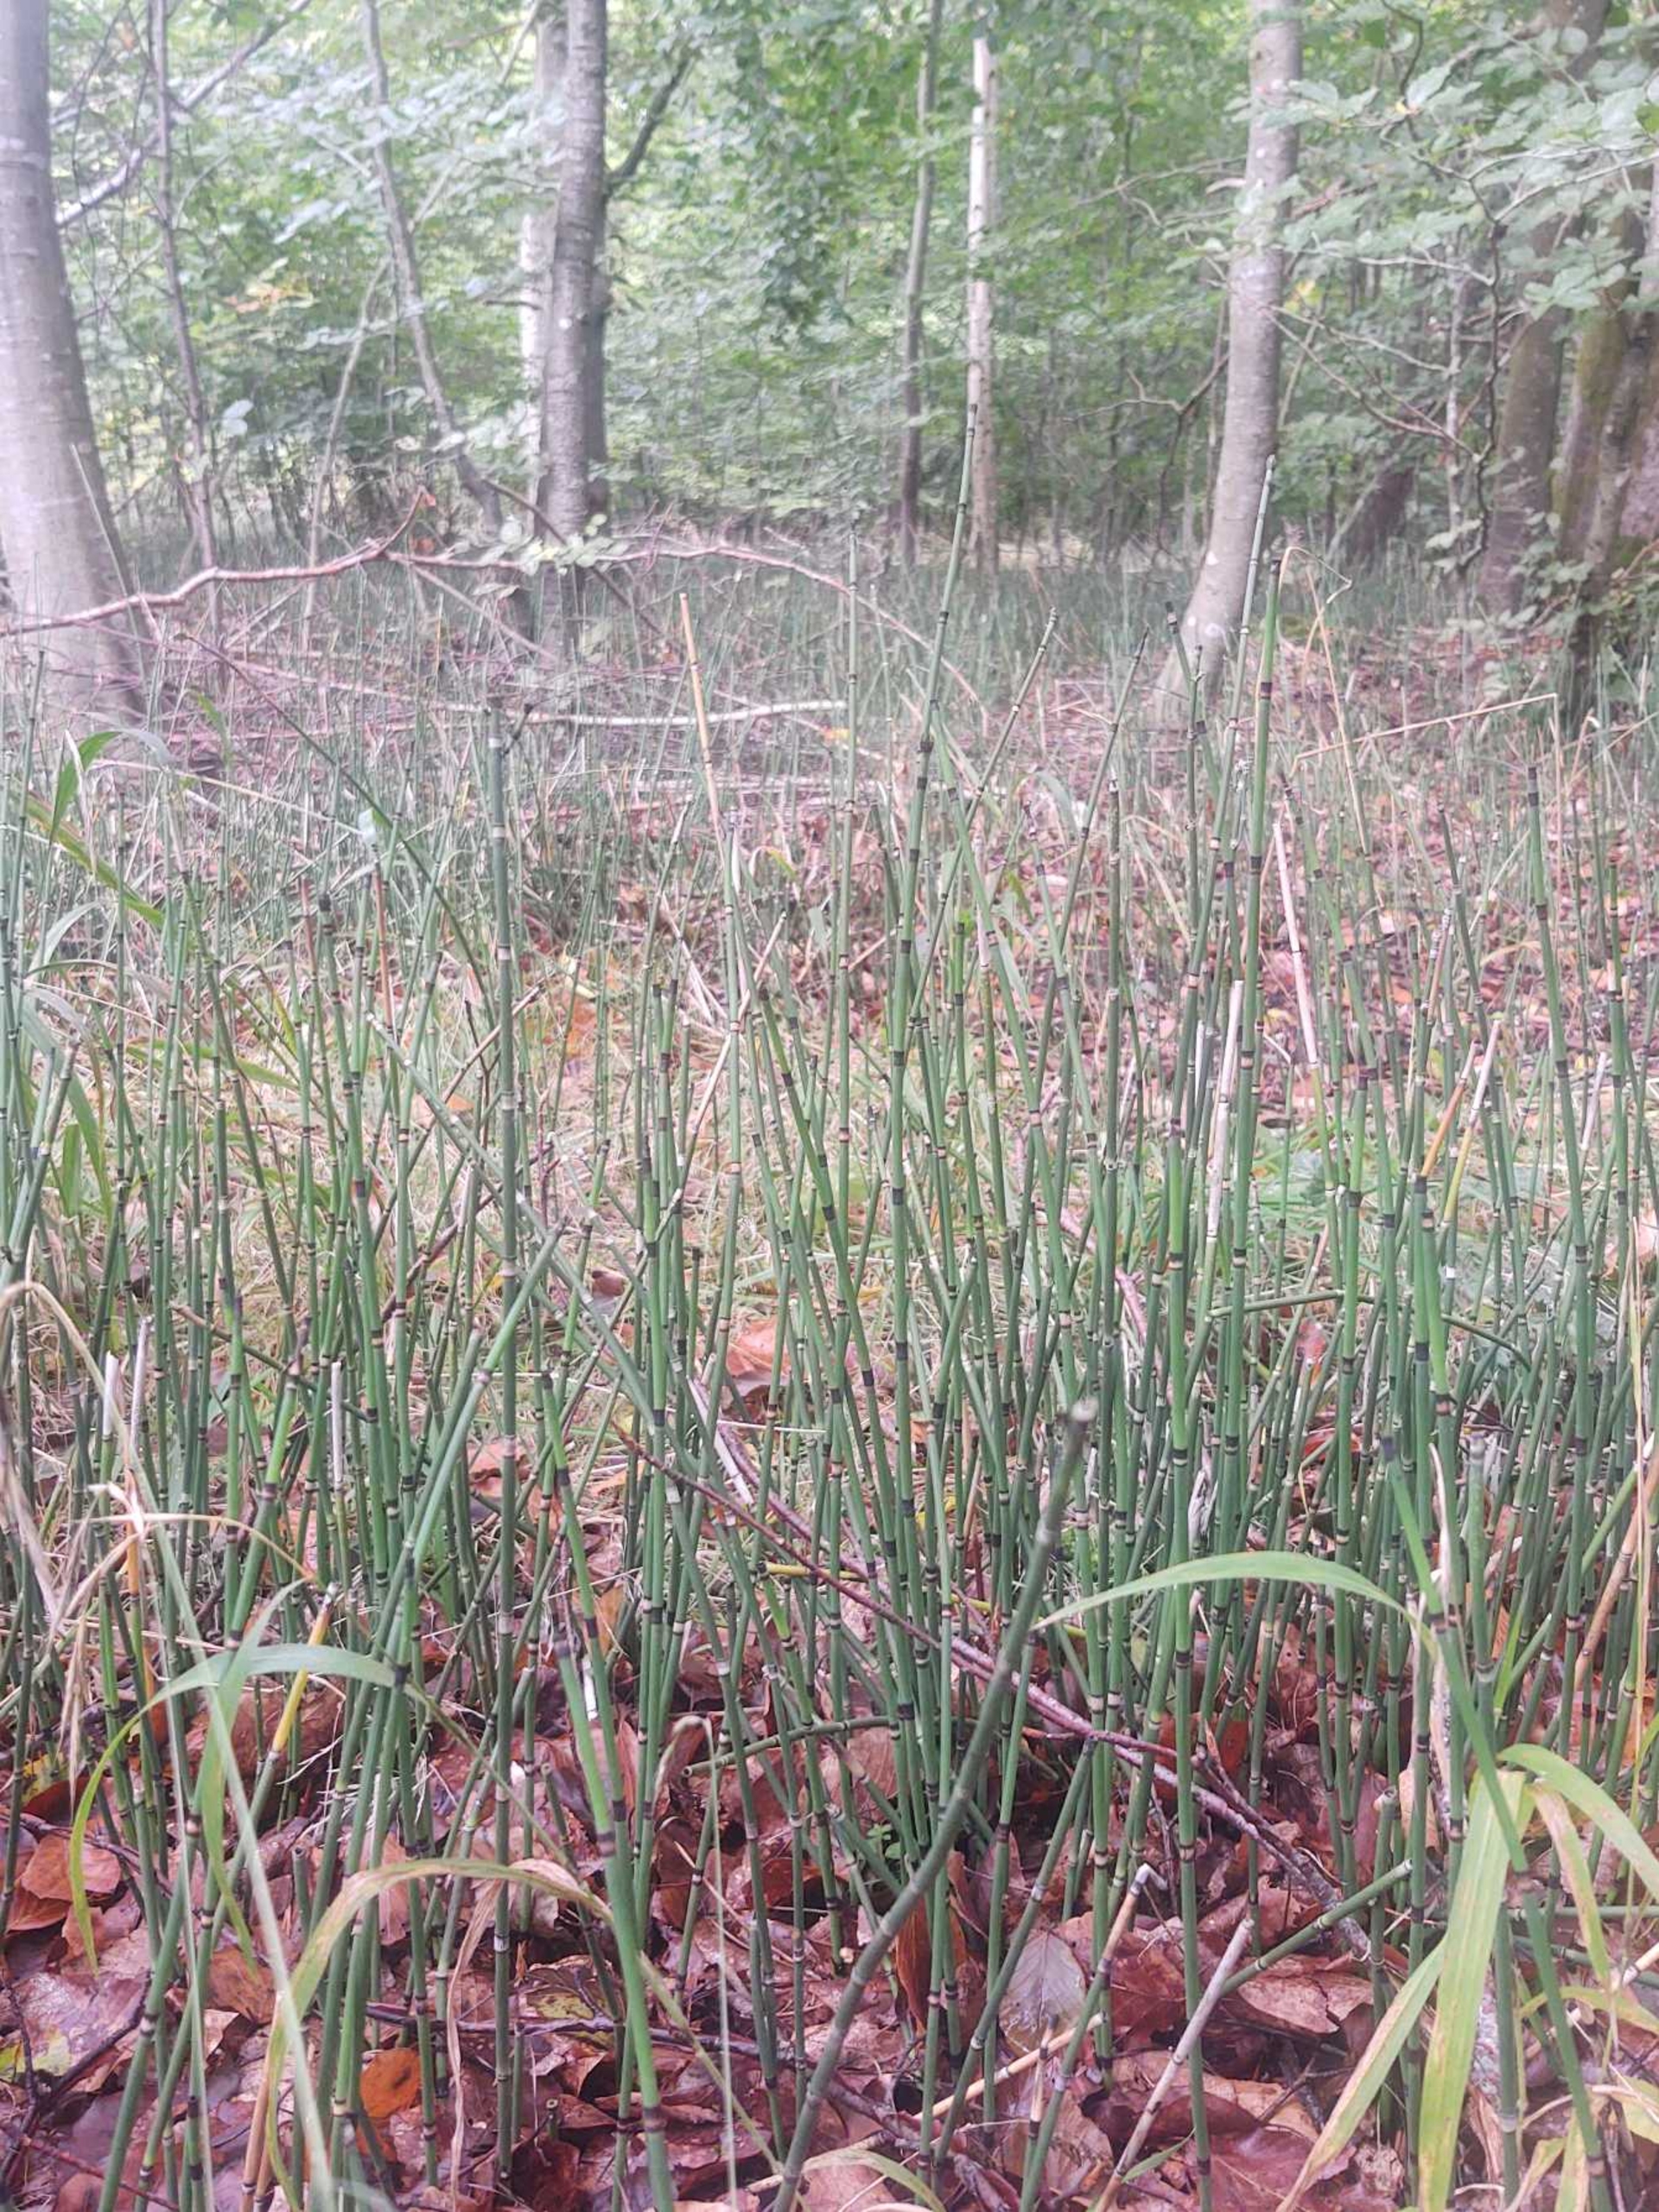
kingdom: Plantae
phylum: Tracheophyta
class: Polypodiopsida
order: Equisetales
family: Equisetaceae
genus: Equisetum
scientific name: Equisetum hyemale
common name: Skavgræs
